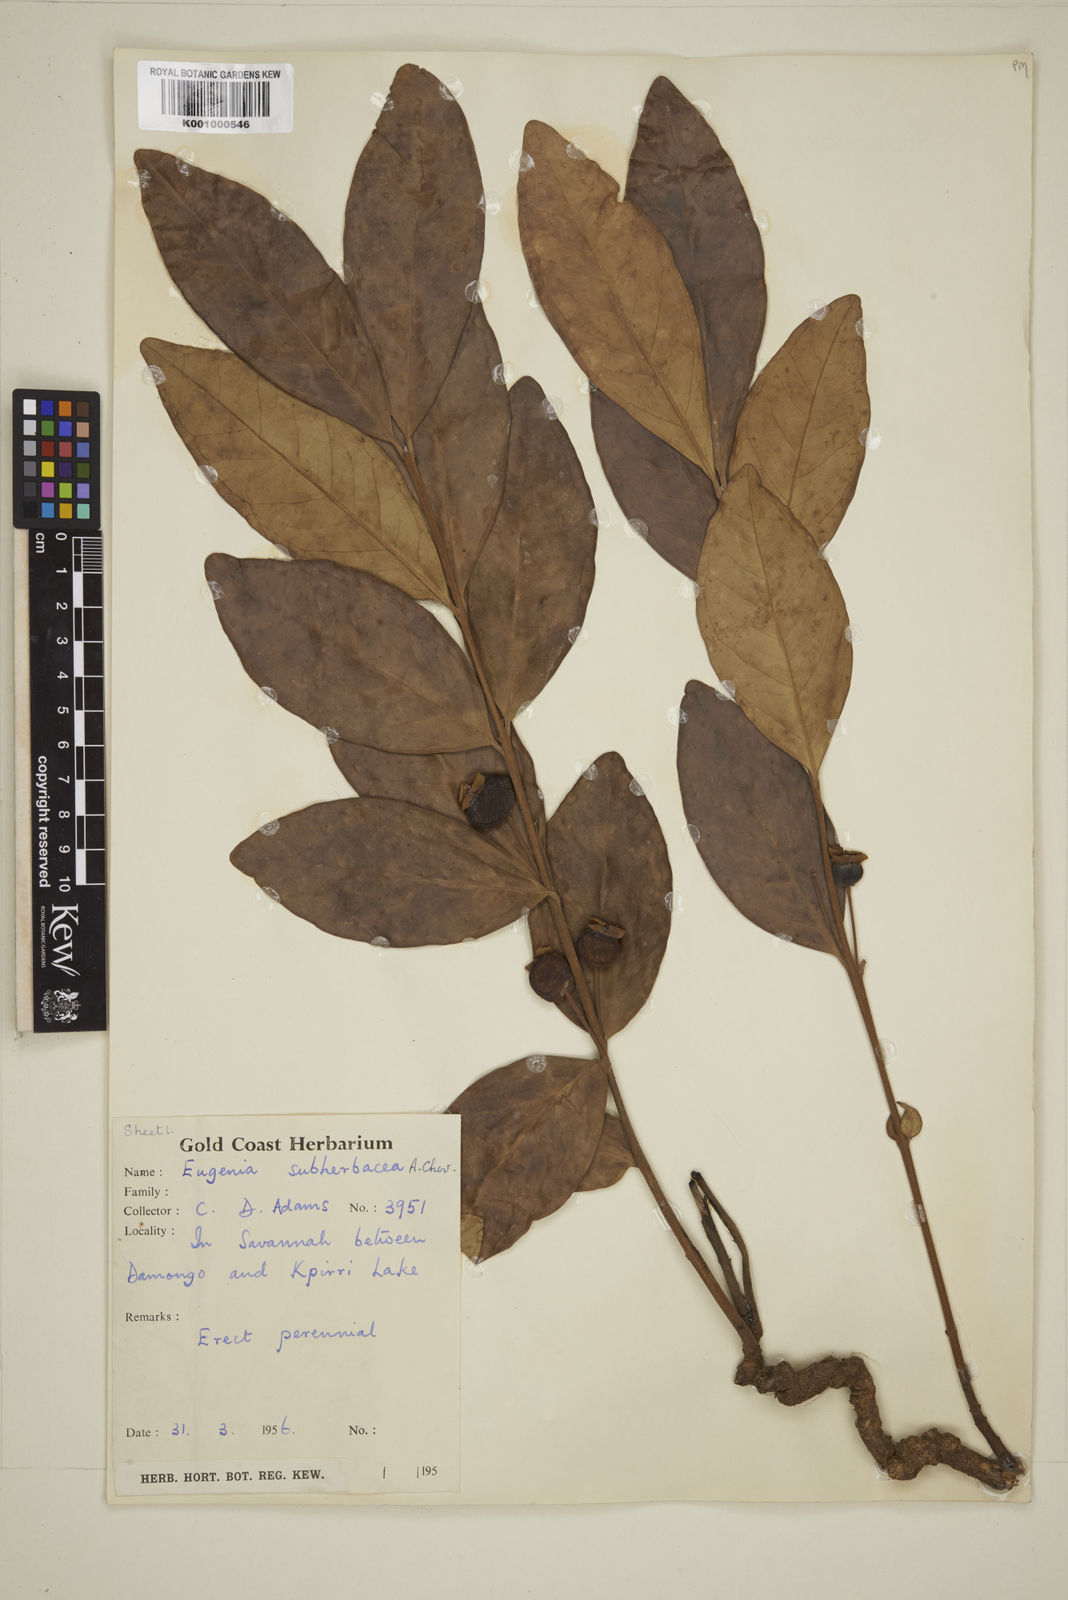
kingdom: Plantae
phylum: Tracheophyta
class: Magnoliopsida
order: Myrtales
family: Myrtaceae
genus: Eugenia
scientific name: Eugenia subherbacea
